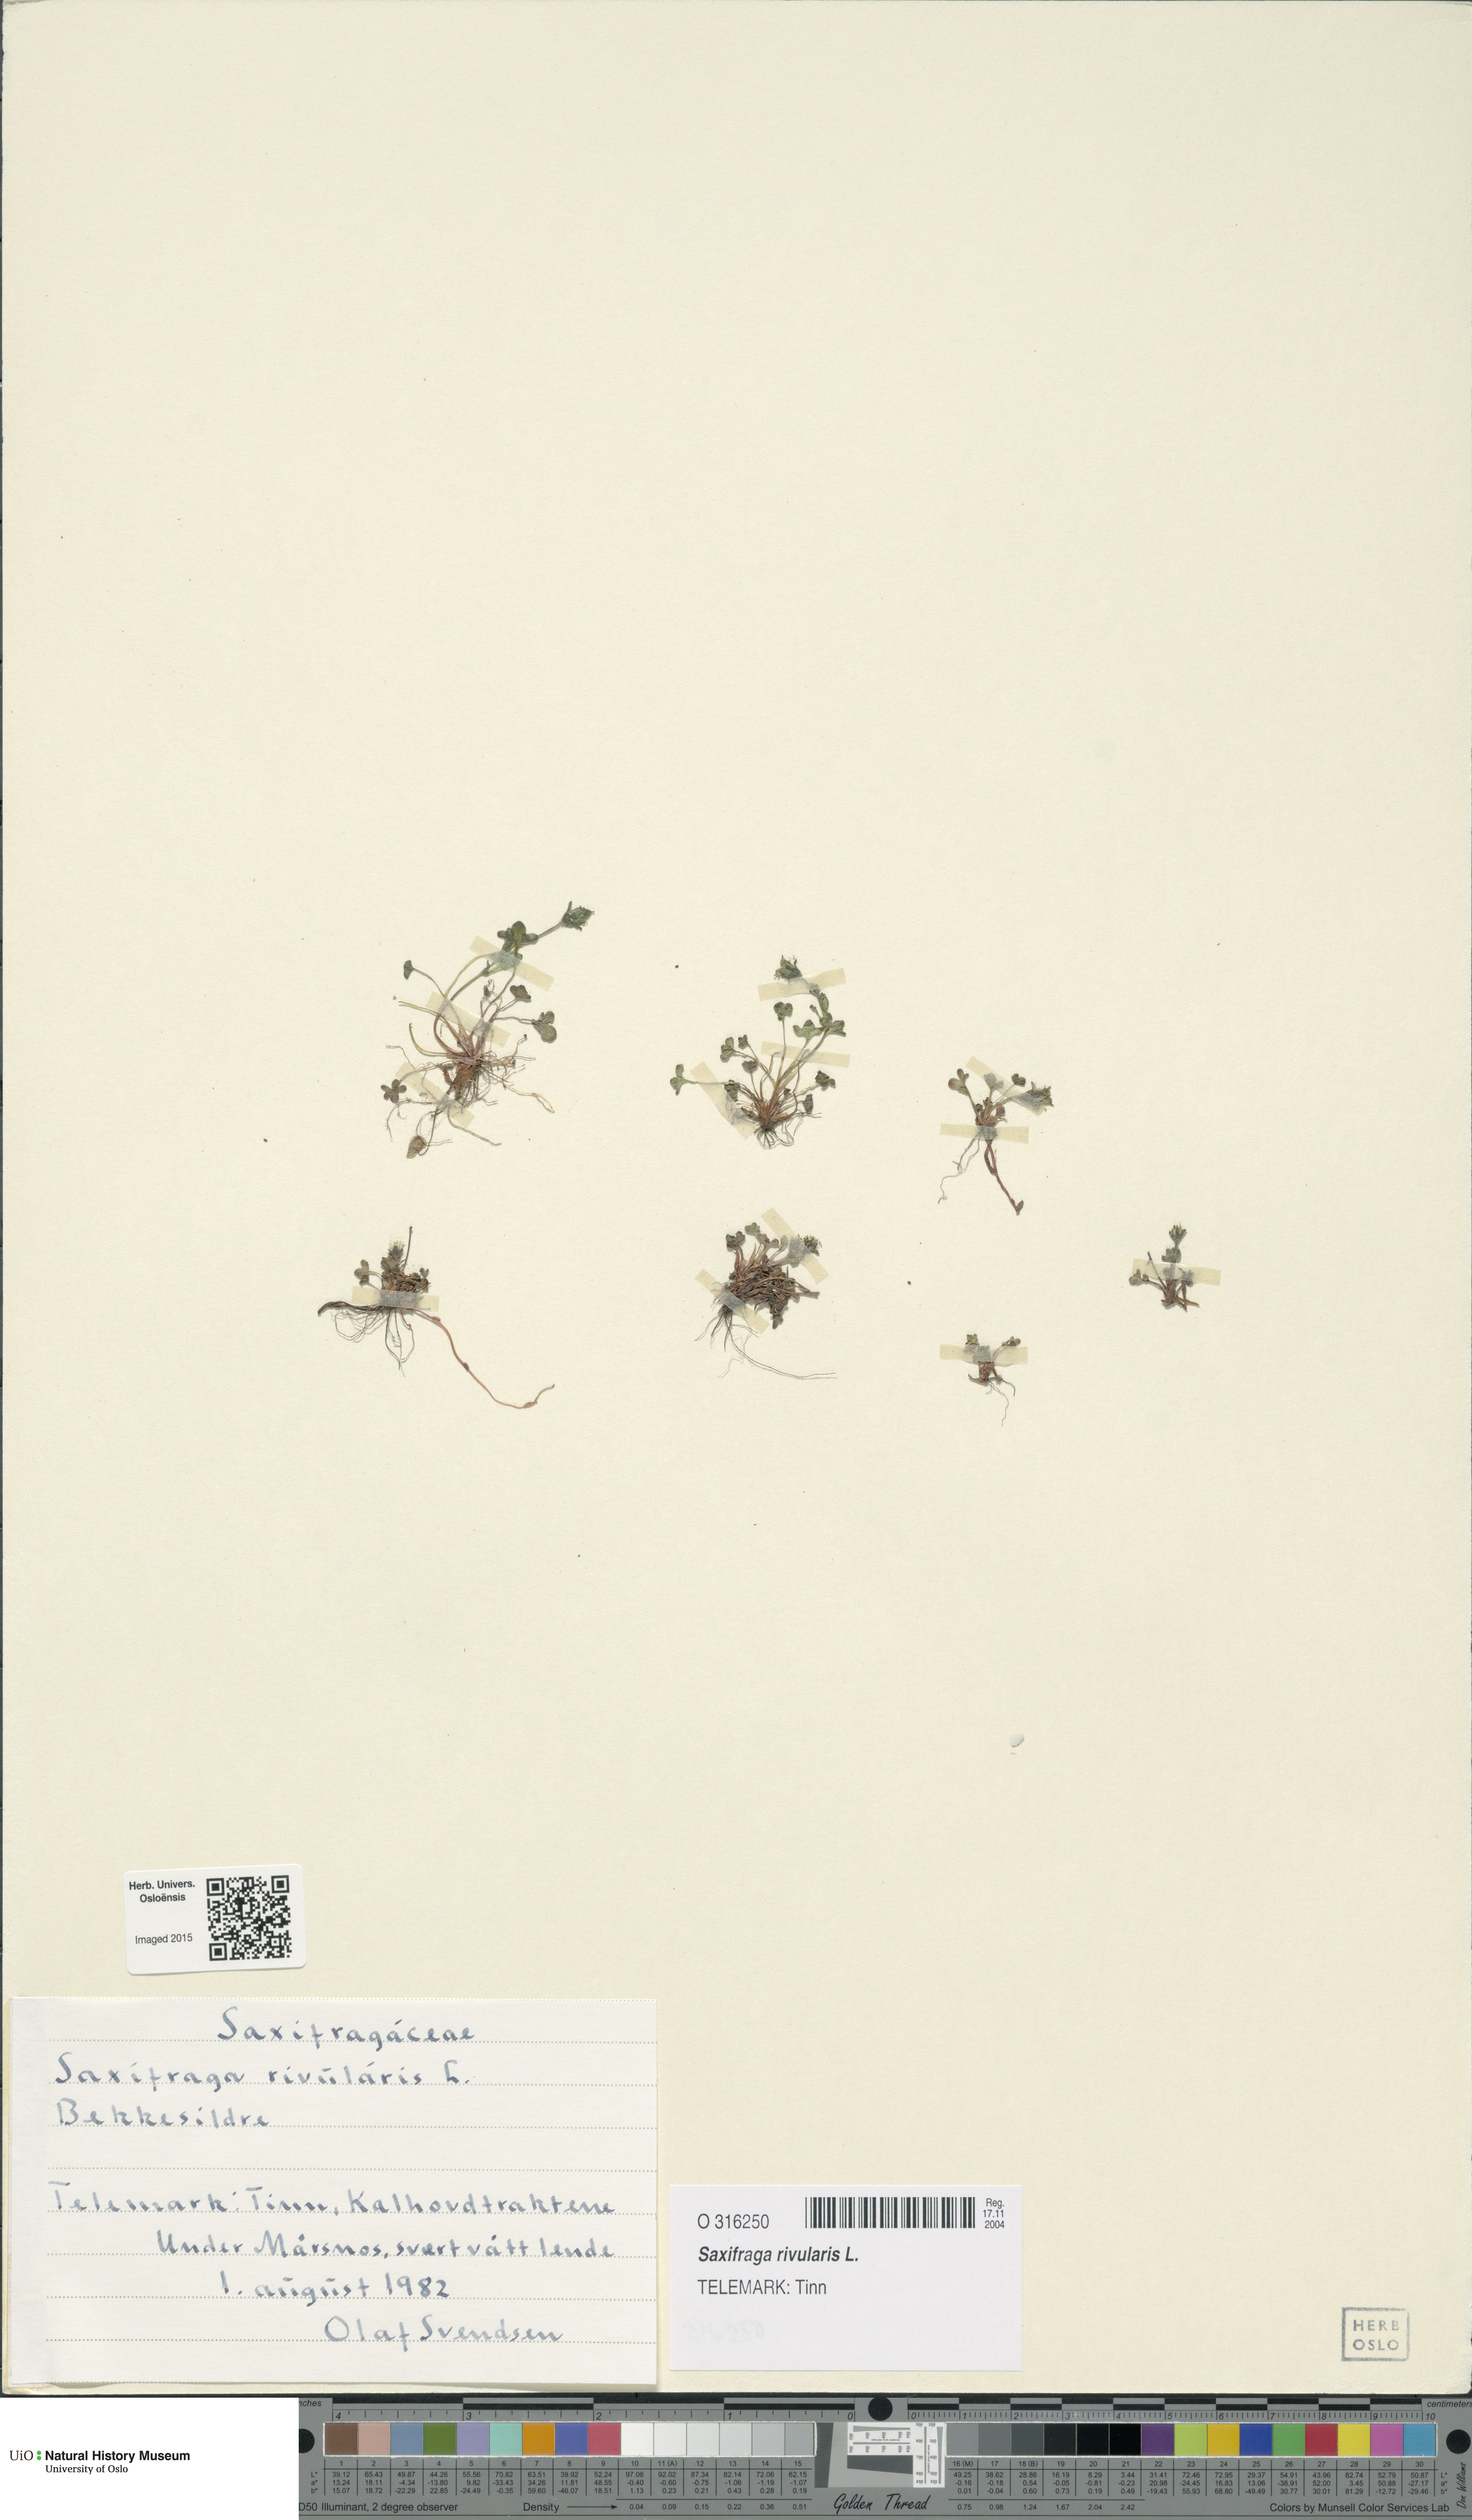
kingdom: Plantae
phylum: Tracheophyta
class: Magnoliopsida
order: Saxifragales
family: Saxifragaceae
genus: Saxifraga
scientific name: Saxifraga rivularis
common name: Highland saxifrage
